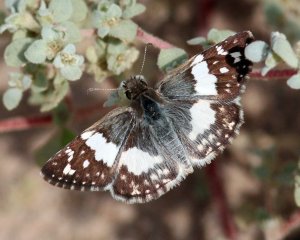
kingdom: Animalia
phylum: Arthropoda
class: Insecta
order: Lepidoptera
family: Hesperiidae
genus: Heliopyrgus
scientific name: Heliopyrgus domicella
